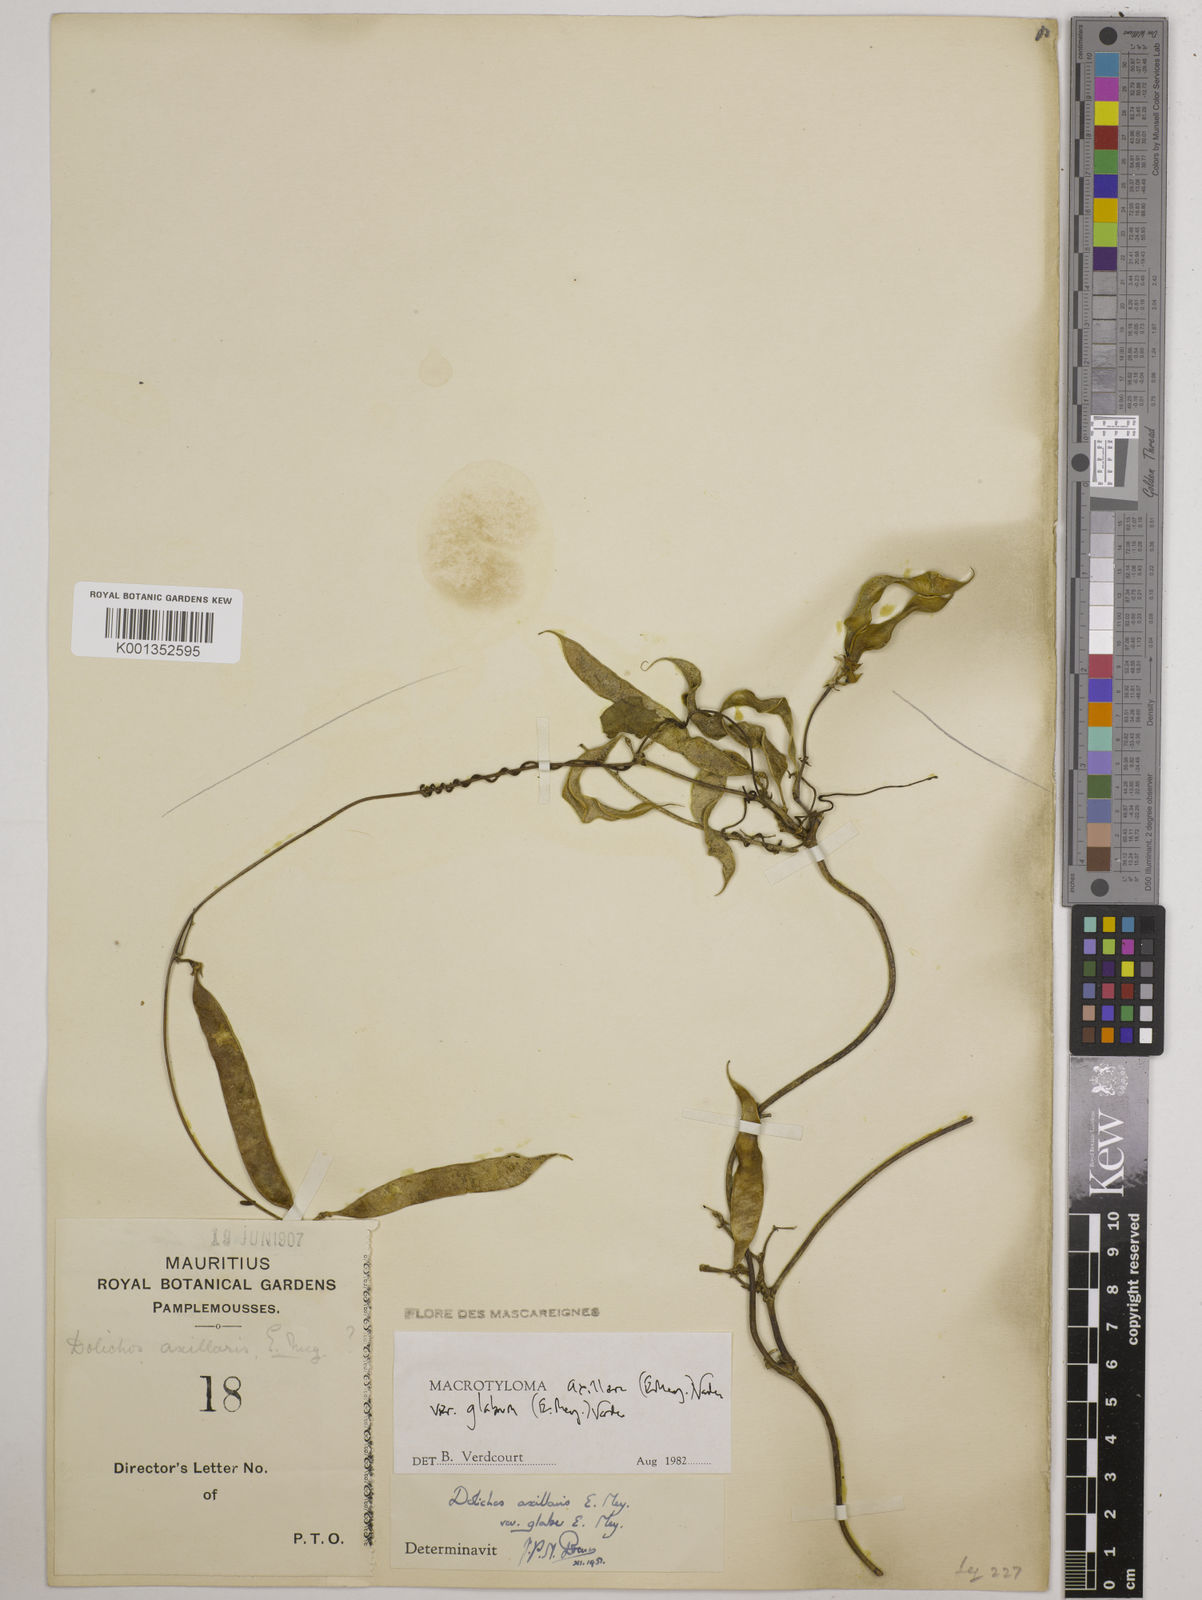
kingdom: Plantae
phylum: Tracheophyta
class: Magnoliopsida
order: Fabales
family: Fabaceae
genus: Macrotyloma
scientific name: Macrotyloma
